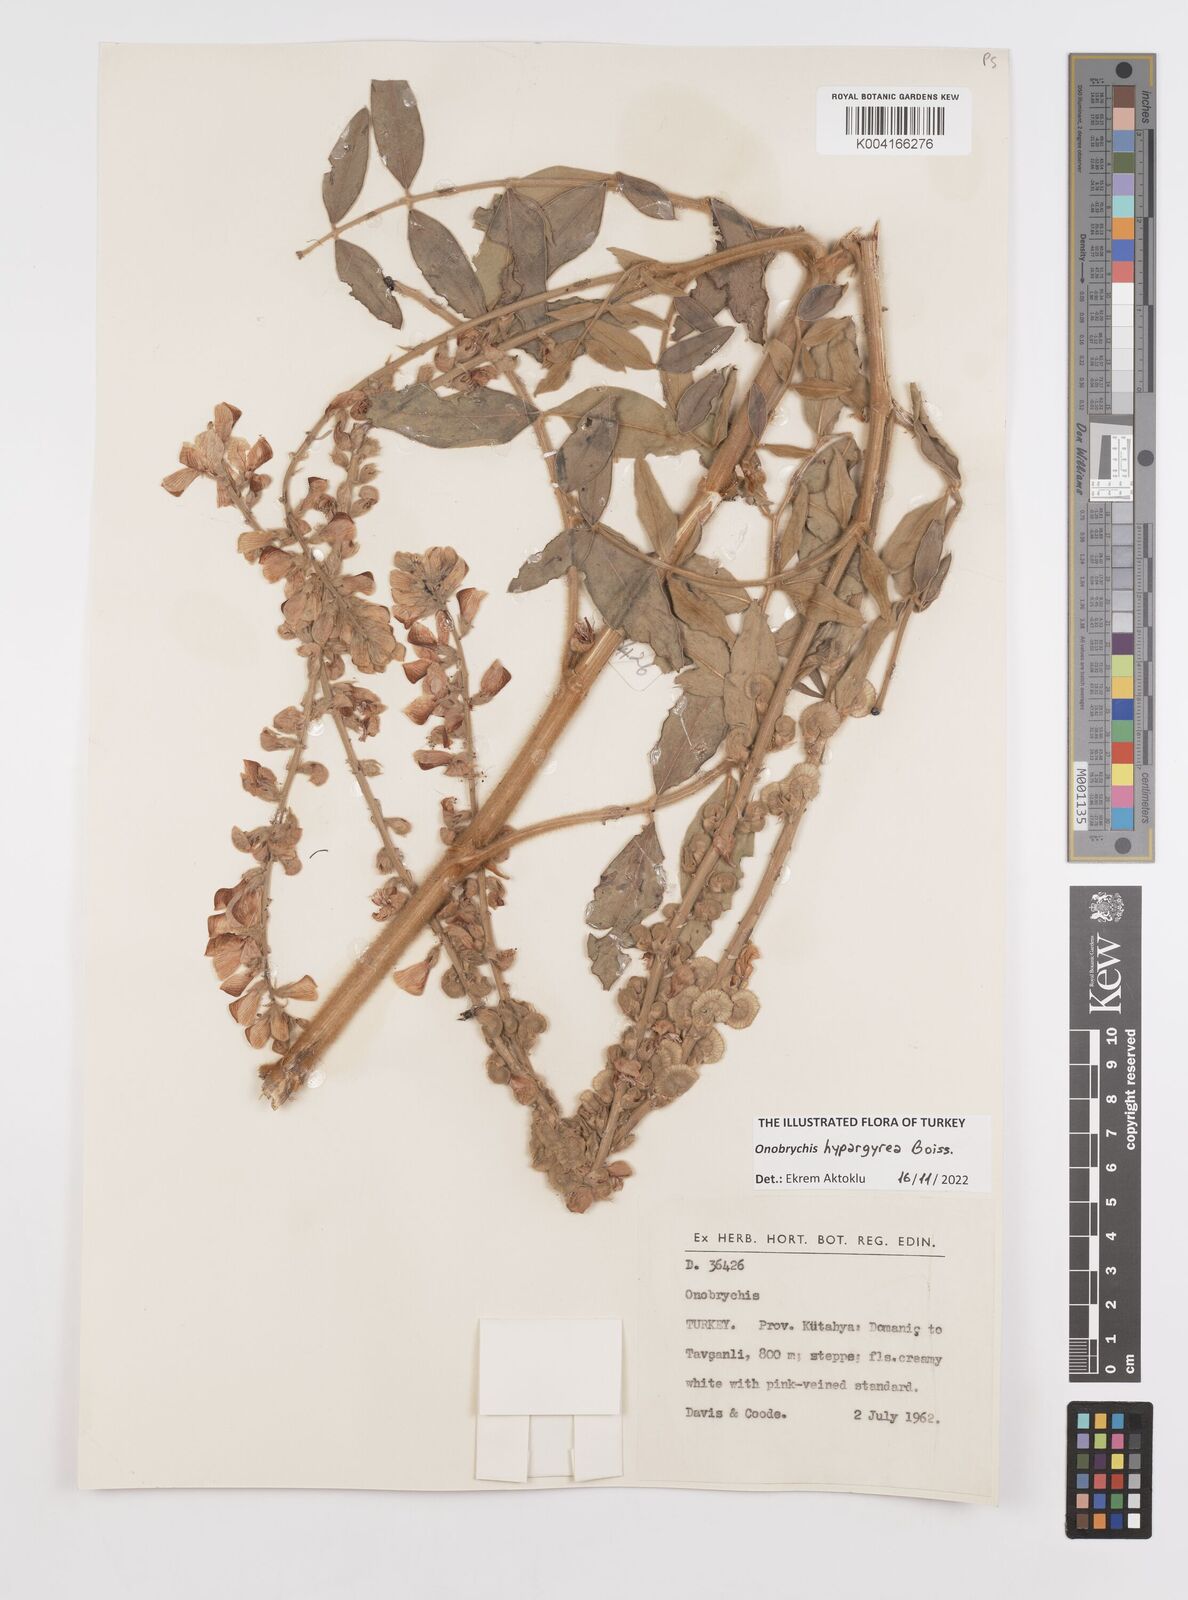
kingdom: Plantae
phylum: Tracheophyta
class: Magnoliopsida
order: Fabales
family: Fabaceae
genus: Onobrychis
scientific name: Onobrychis hypargyrea
